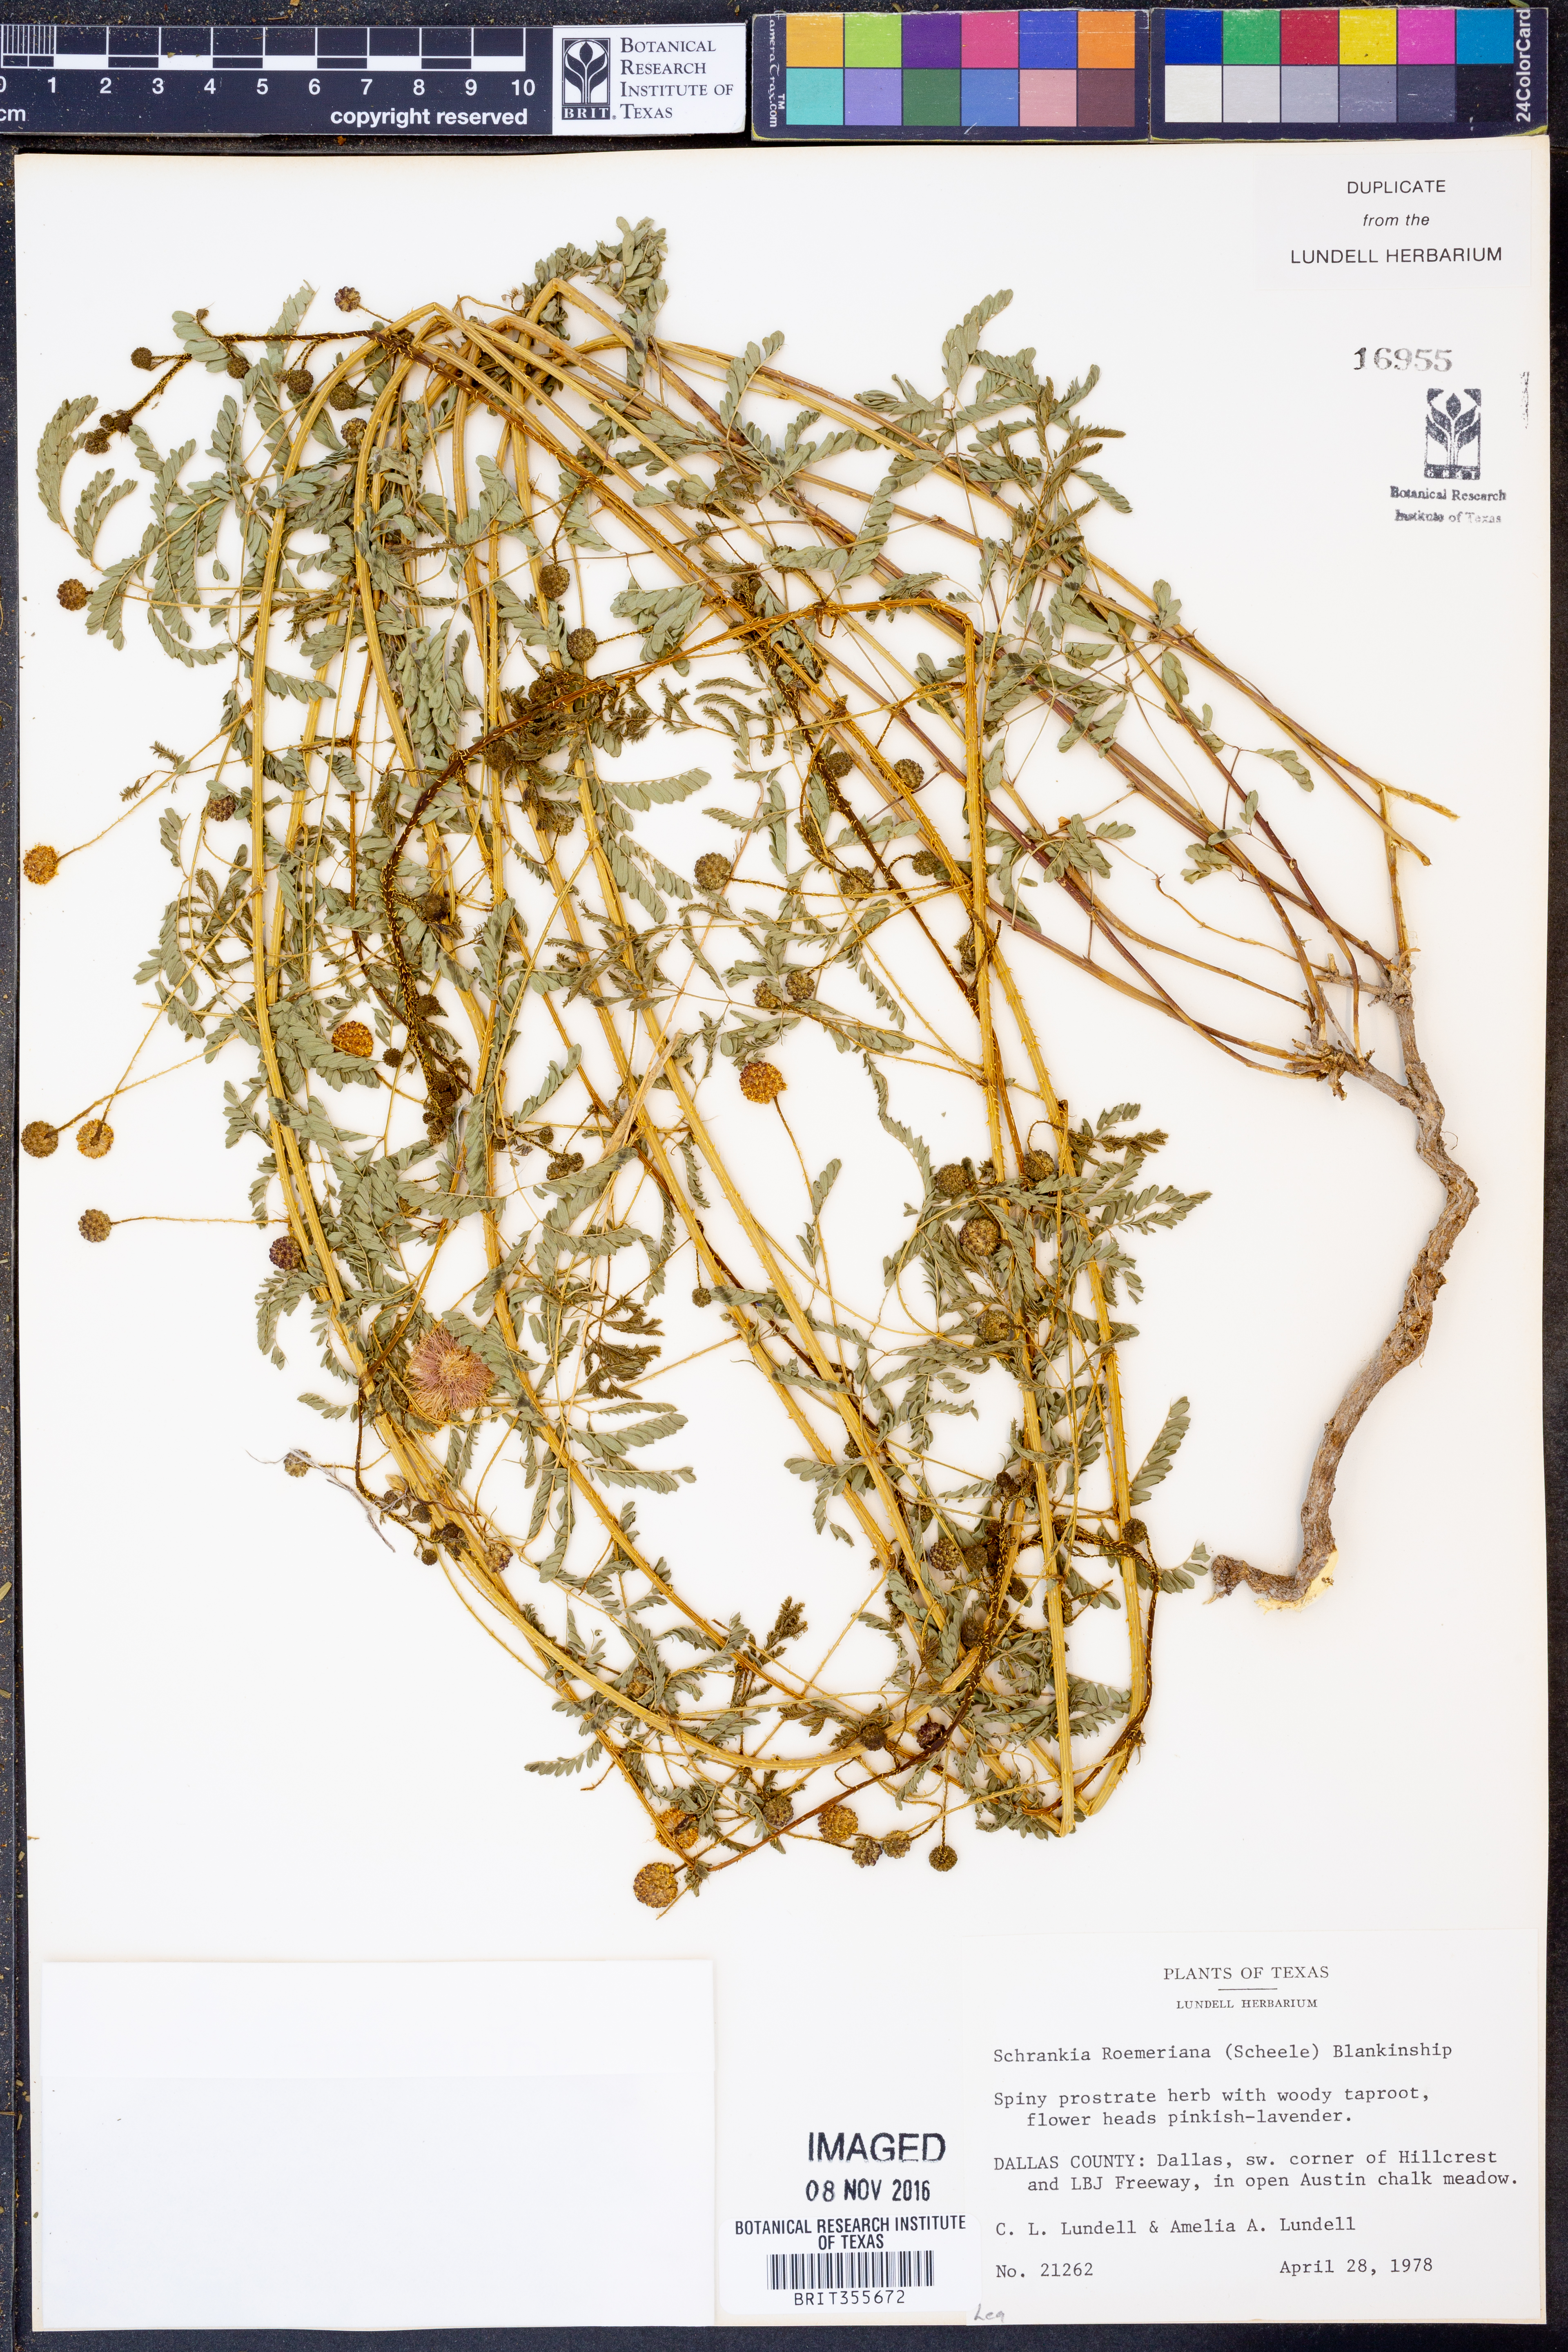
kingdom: Plantae
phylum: Tracheophyta
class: Magnoliopsida
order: Fabales
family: Fabaceae
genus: Mimosa
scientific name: Mimosa quadrivalvis
